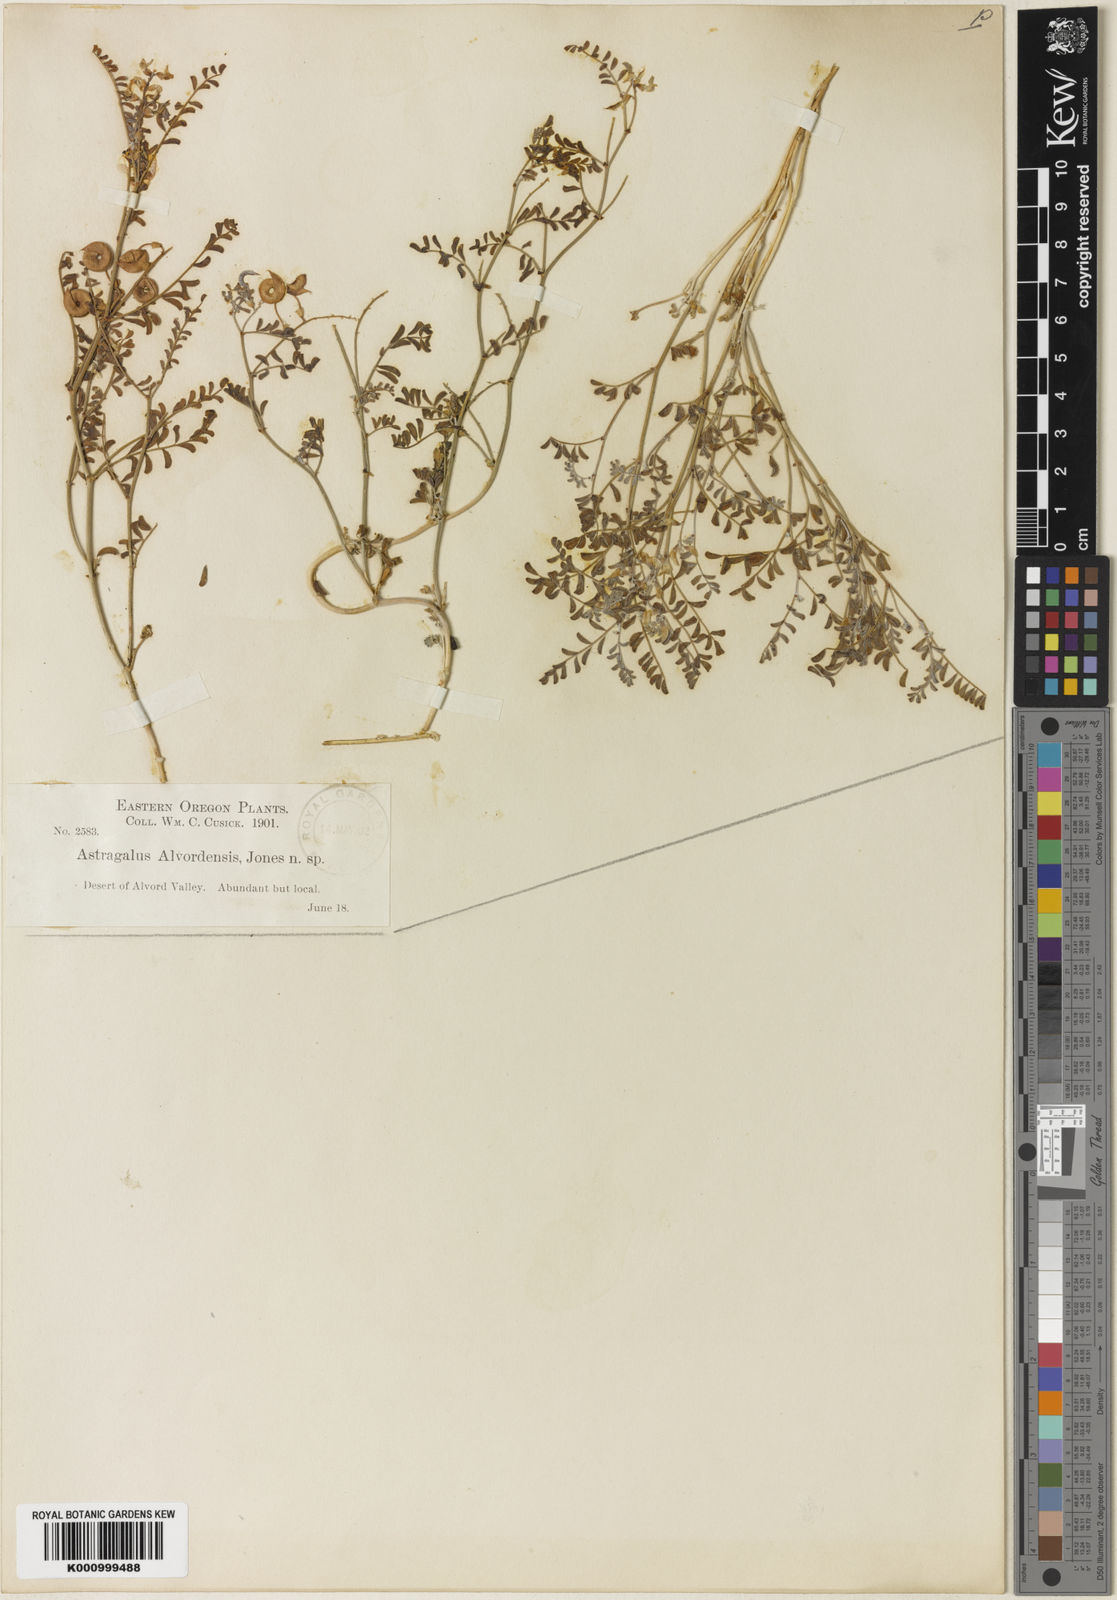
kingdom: Plantae
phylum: Tracheophyta
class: Magnoliopsida
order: Fabales
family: Fabaceae
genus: Astragalus
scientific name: Astragalus alvordensis
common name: Alvord milk-vetch
